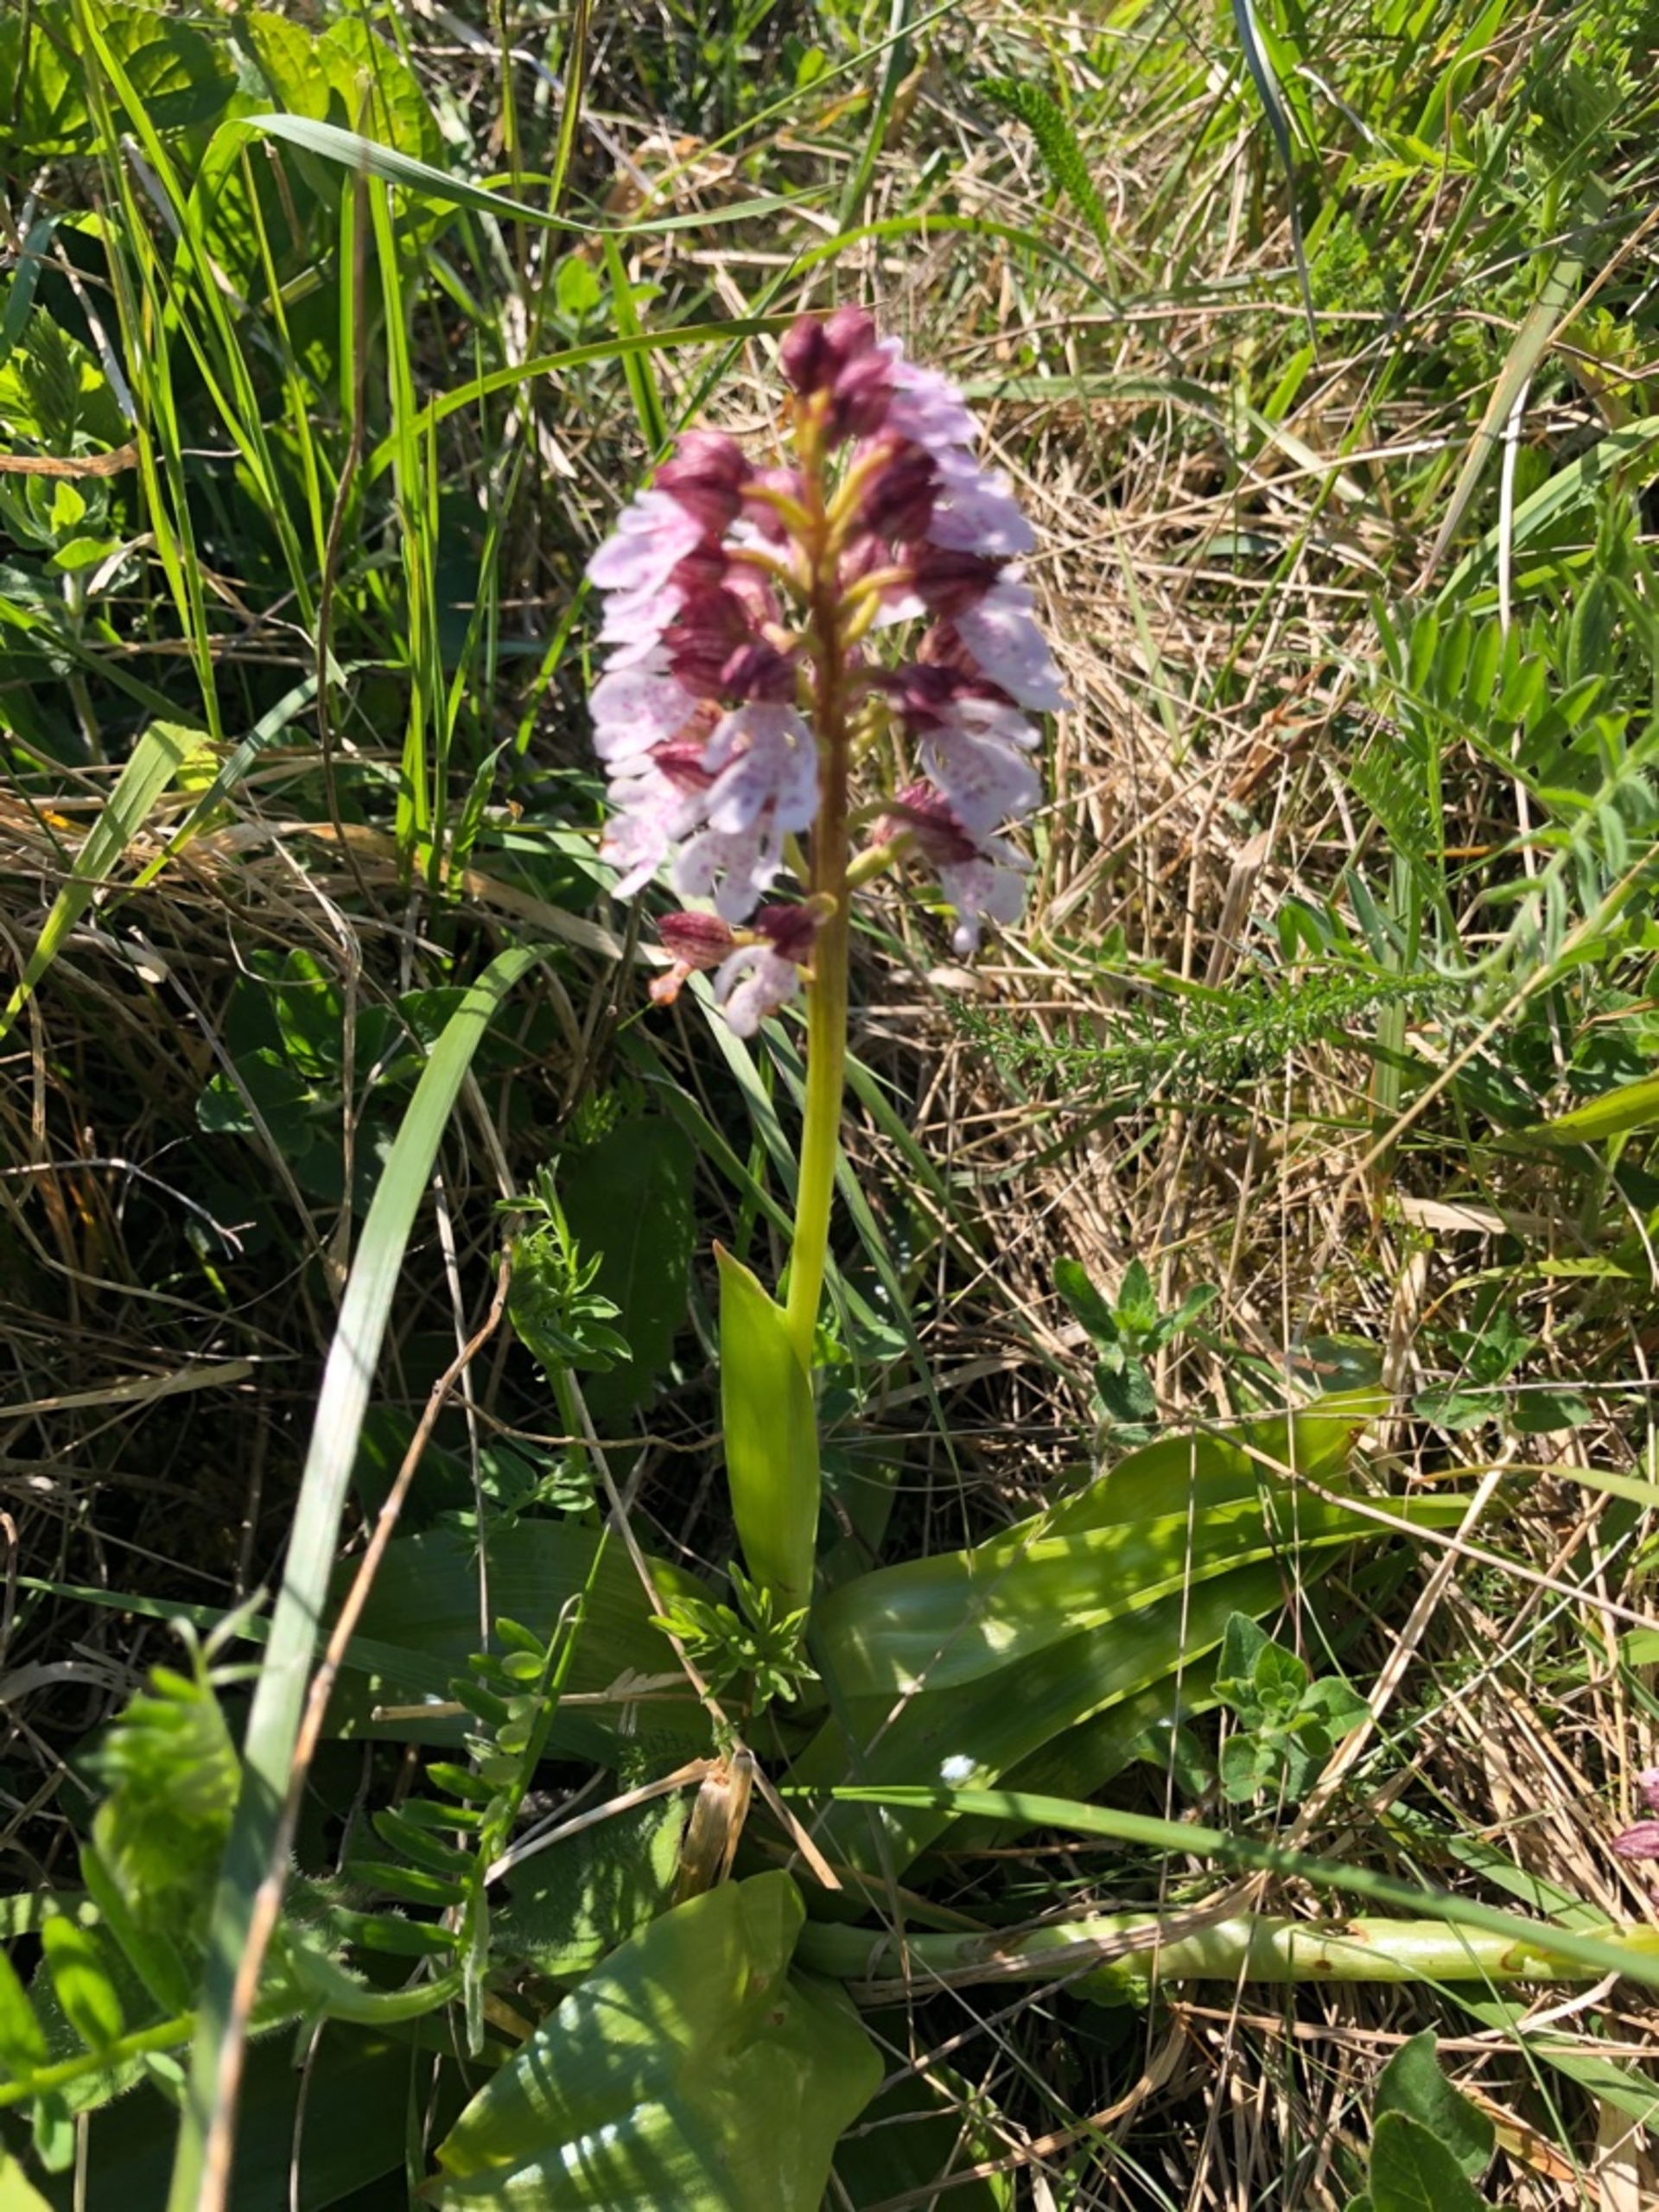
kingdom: Plantae
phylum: Tracheophyta
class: Liliopsida
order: Asparagales
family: Orchidaceae
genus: Orchis
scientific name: Orchis purpurea
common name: Stor gøgeurt
